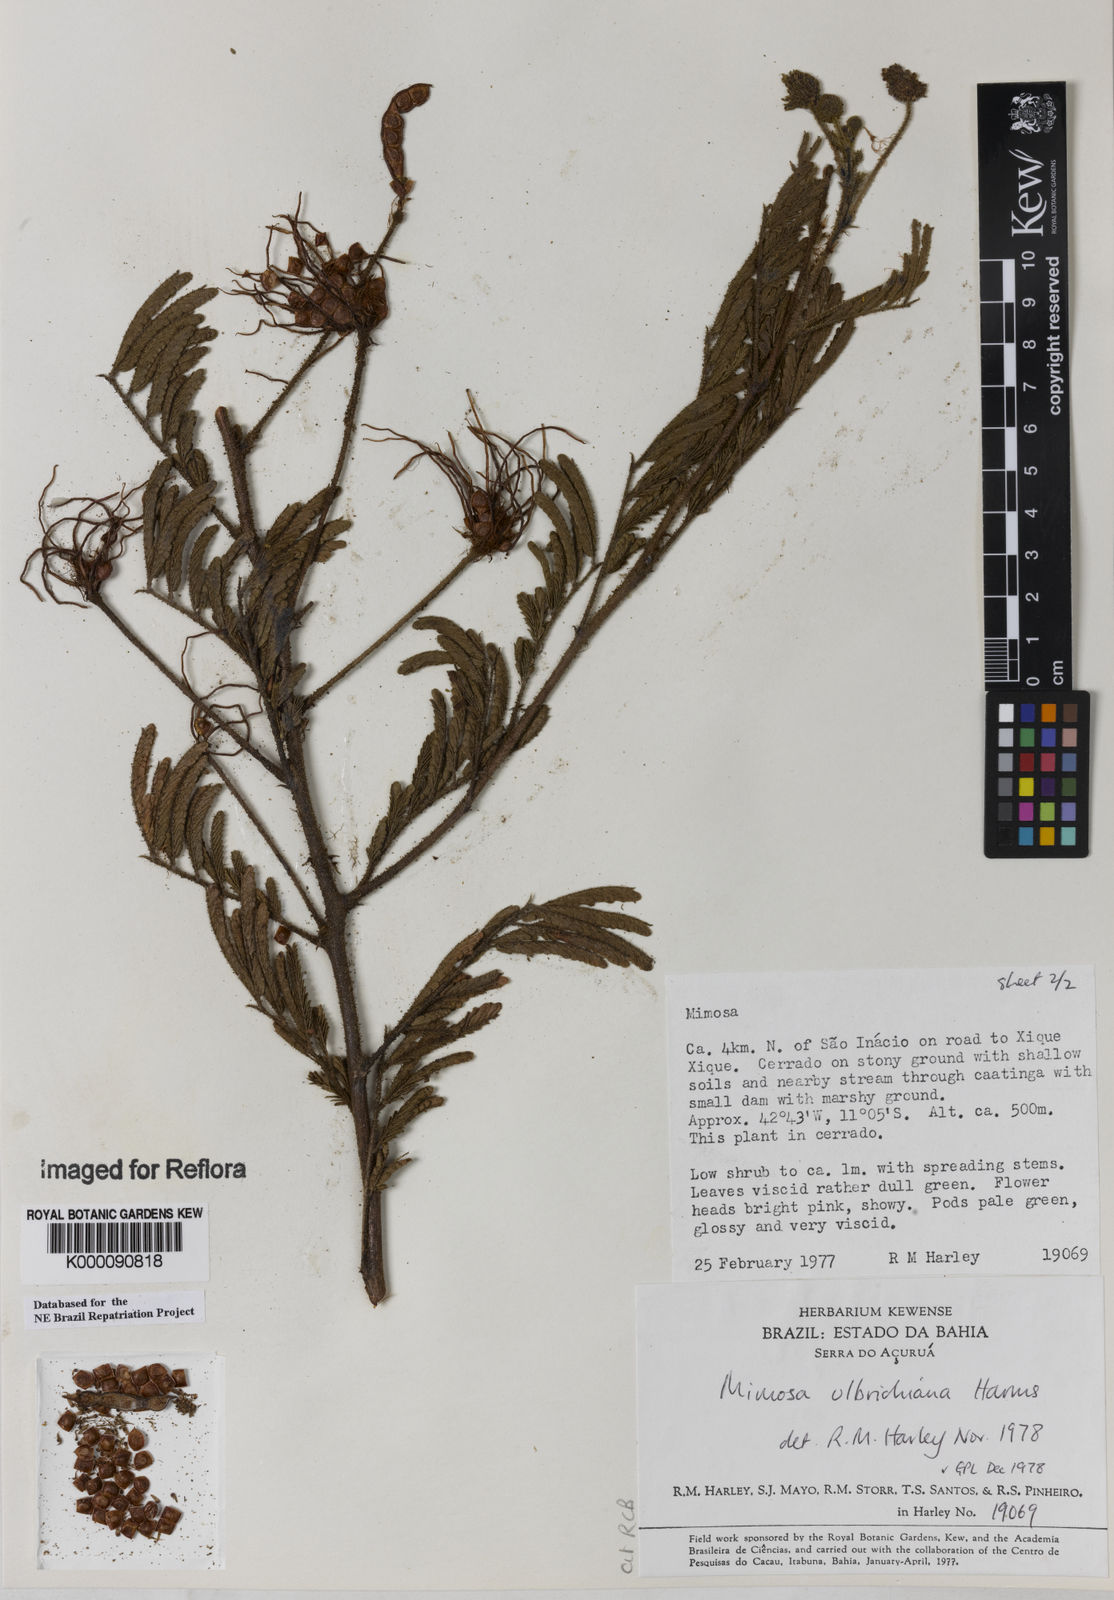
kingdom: Plantae
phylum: Tracheophyta
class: Magnoliopsida
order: Fabales
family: Fabaceae
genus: Mimosa
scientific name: Mimosa ulbrichiana
